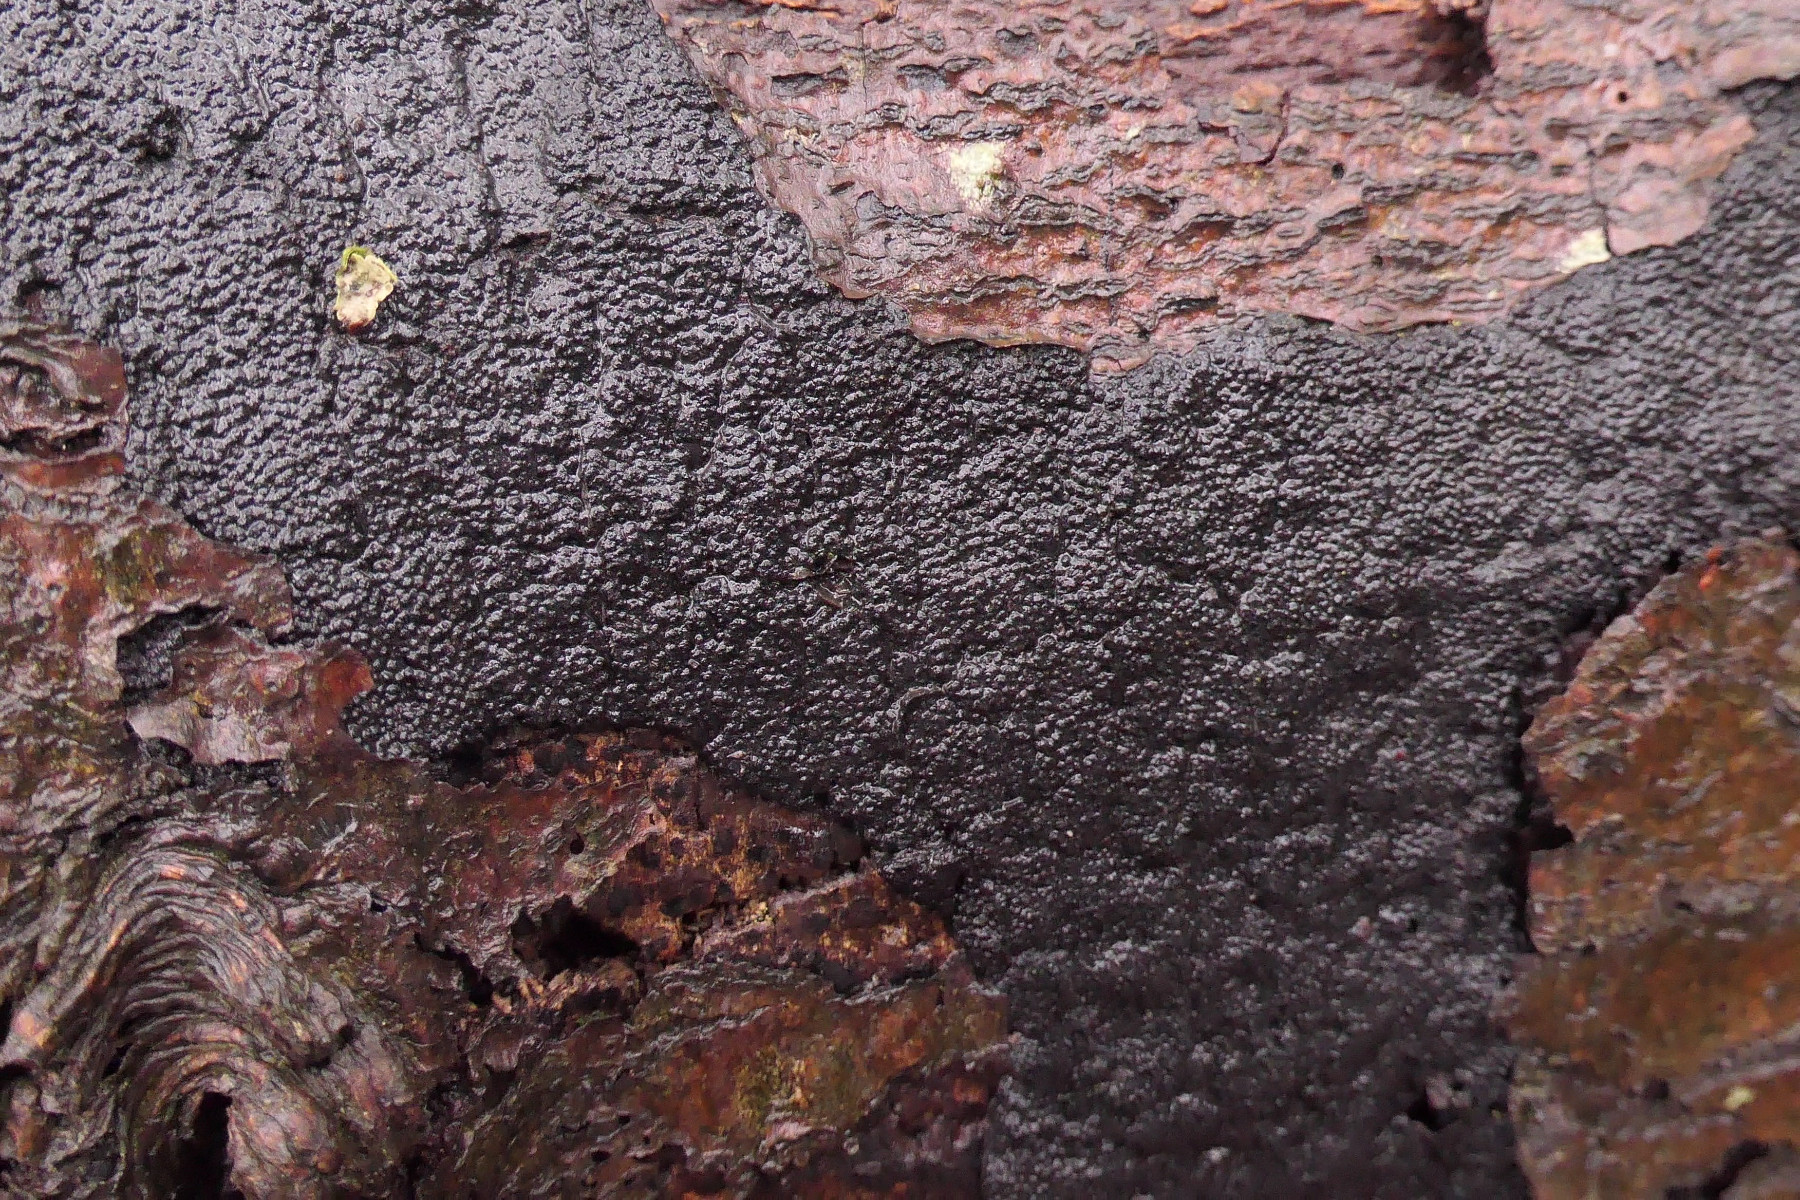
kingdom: Fungi
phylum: Ascomycota
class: Sordariomycetes
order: Xylariales
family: Diatrypaceae
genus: Eutypa
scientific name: Eutypa spinosa
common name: grov kulskorpe
